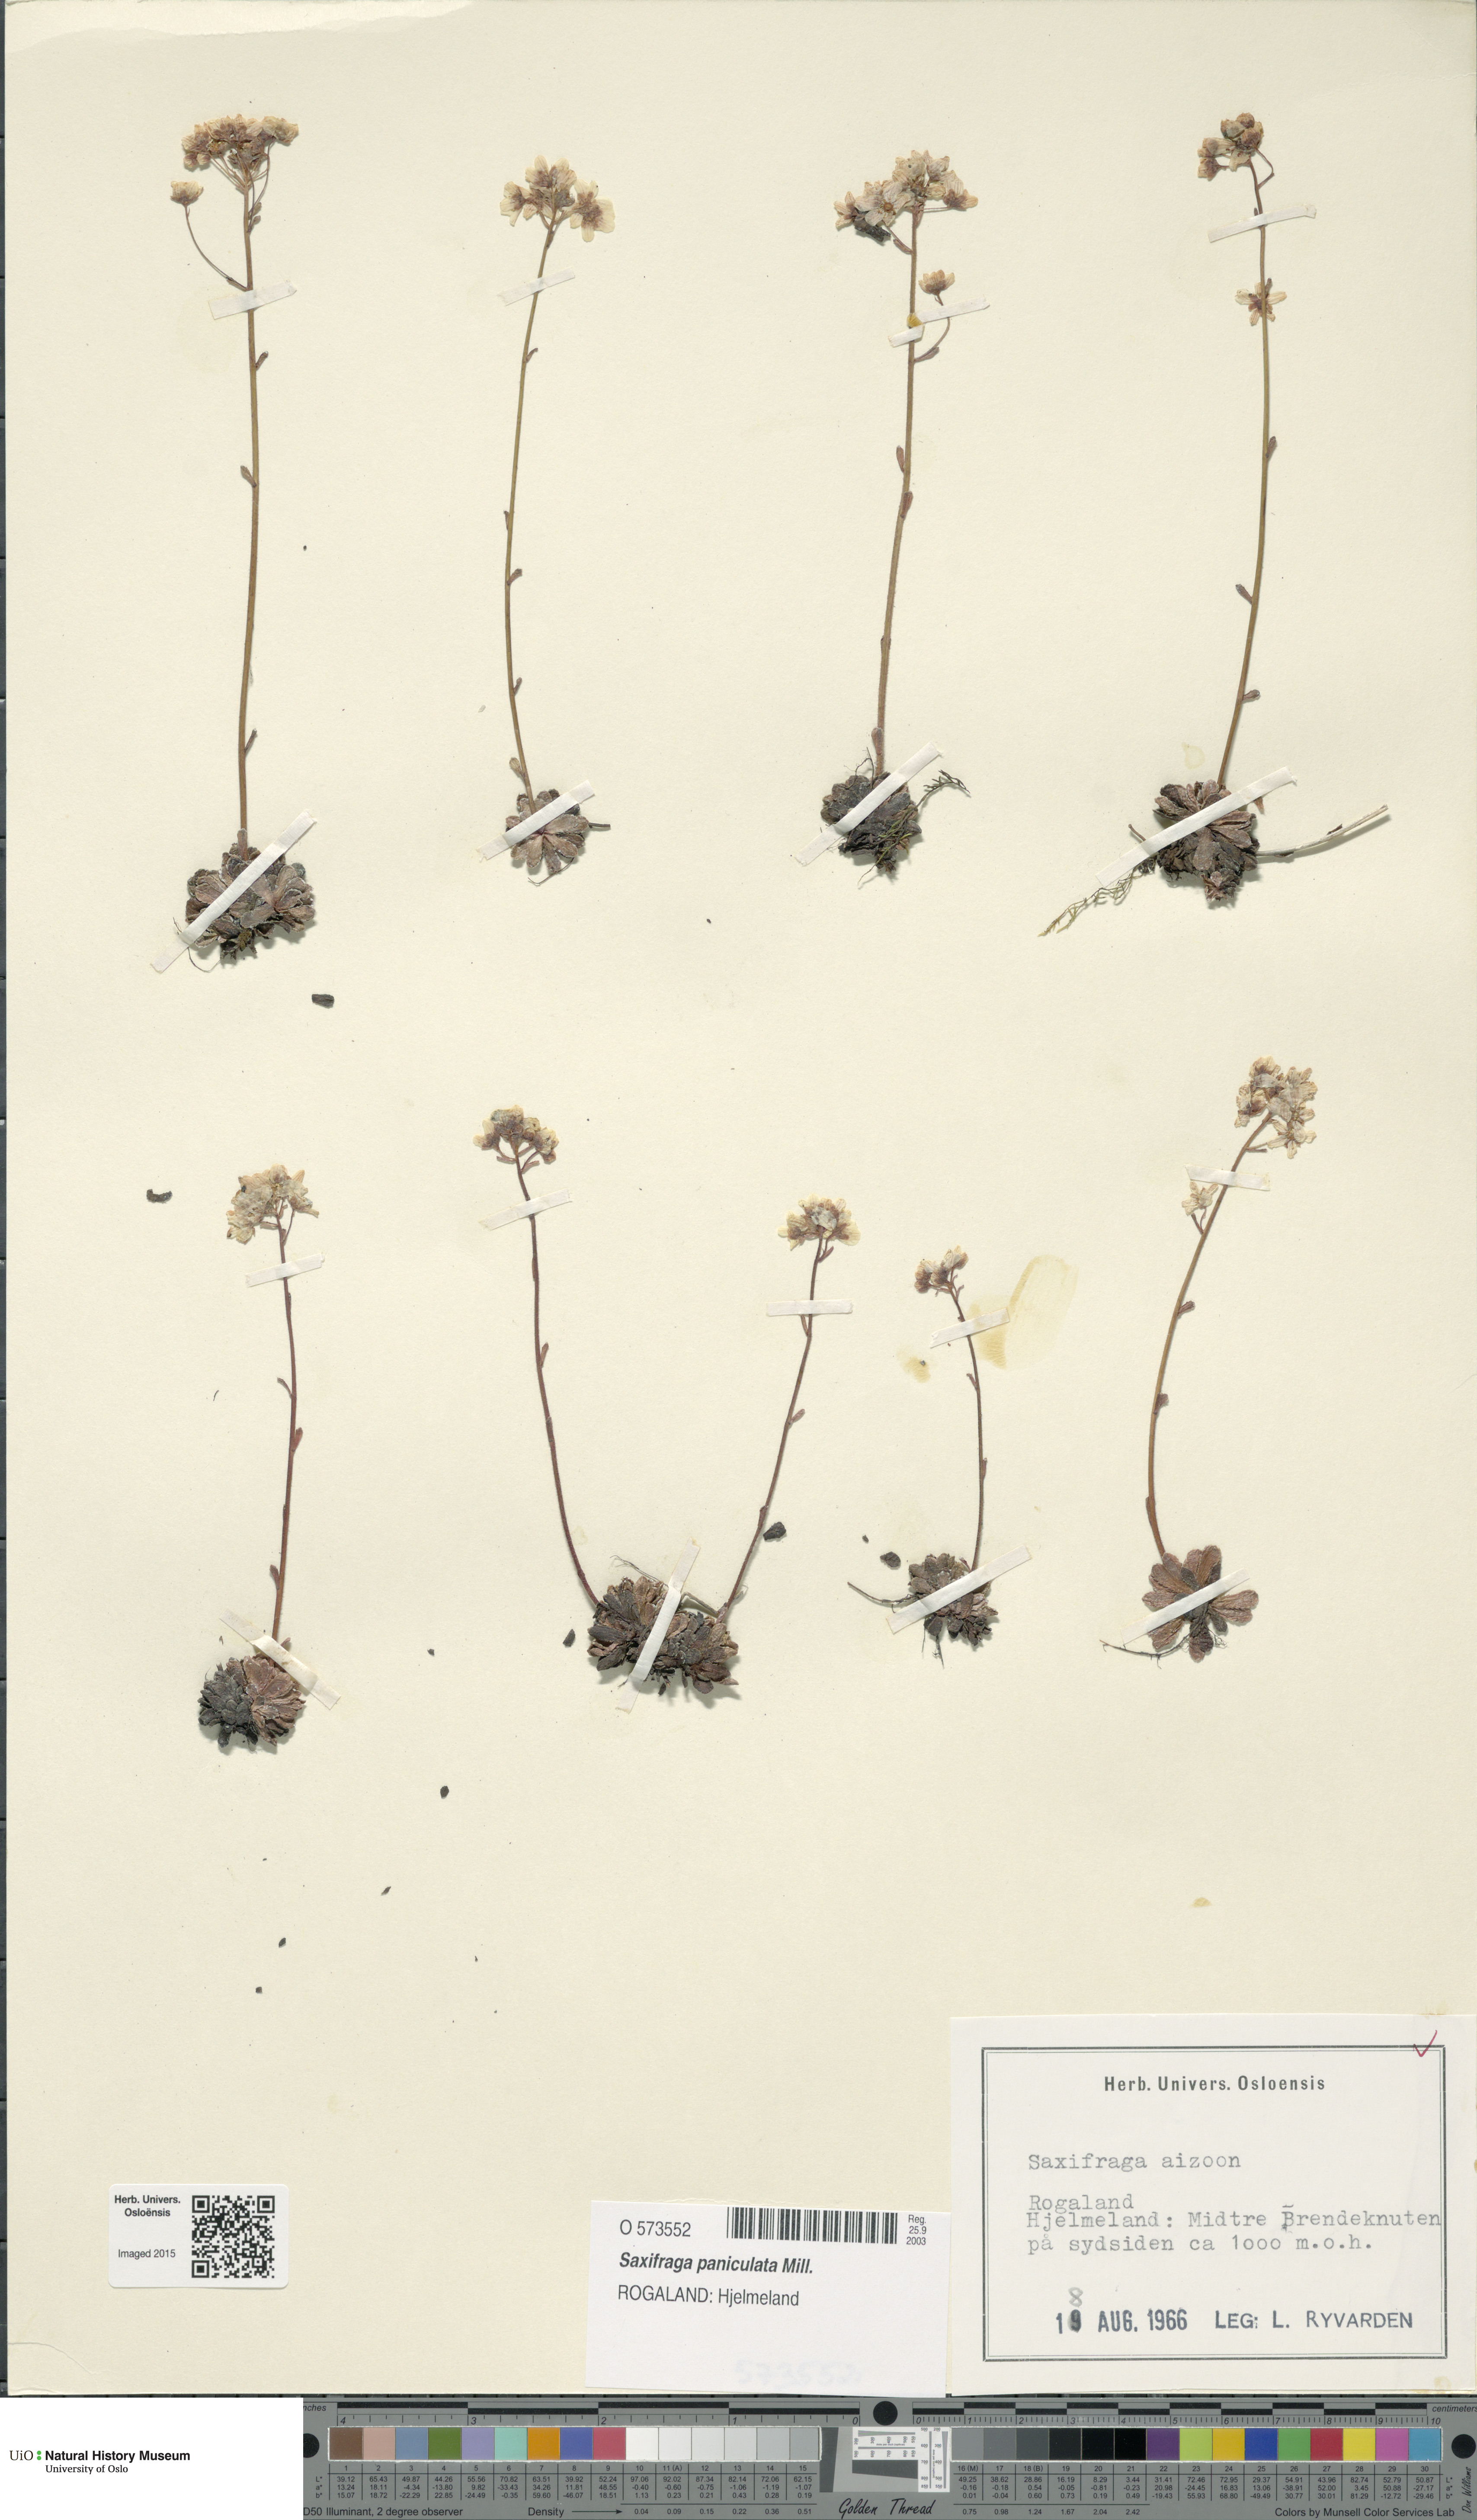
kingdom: Plantae
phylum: Tracheophyta
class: Magnoliopsida
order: Saxifragales
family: Saxifragaceae
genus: Saxifraga
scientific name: Saxifraga paniculata
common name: Livelong saxifrage
